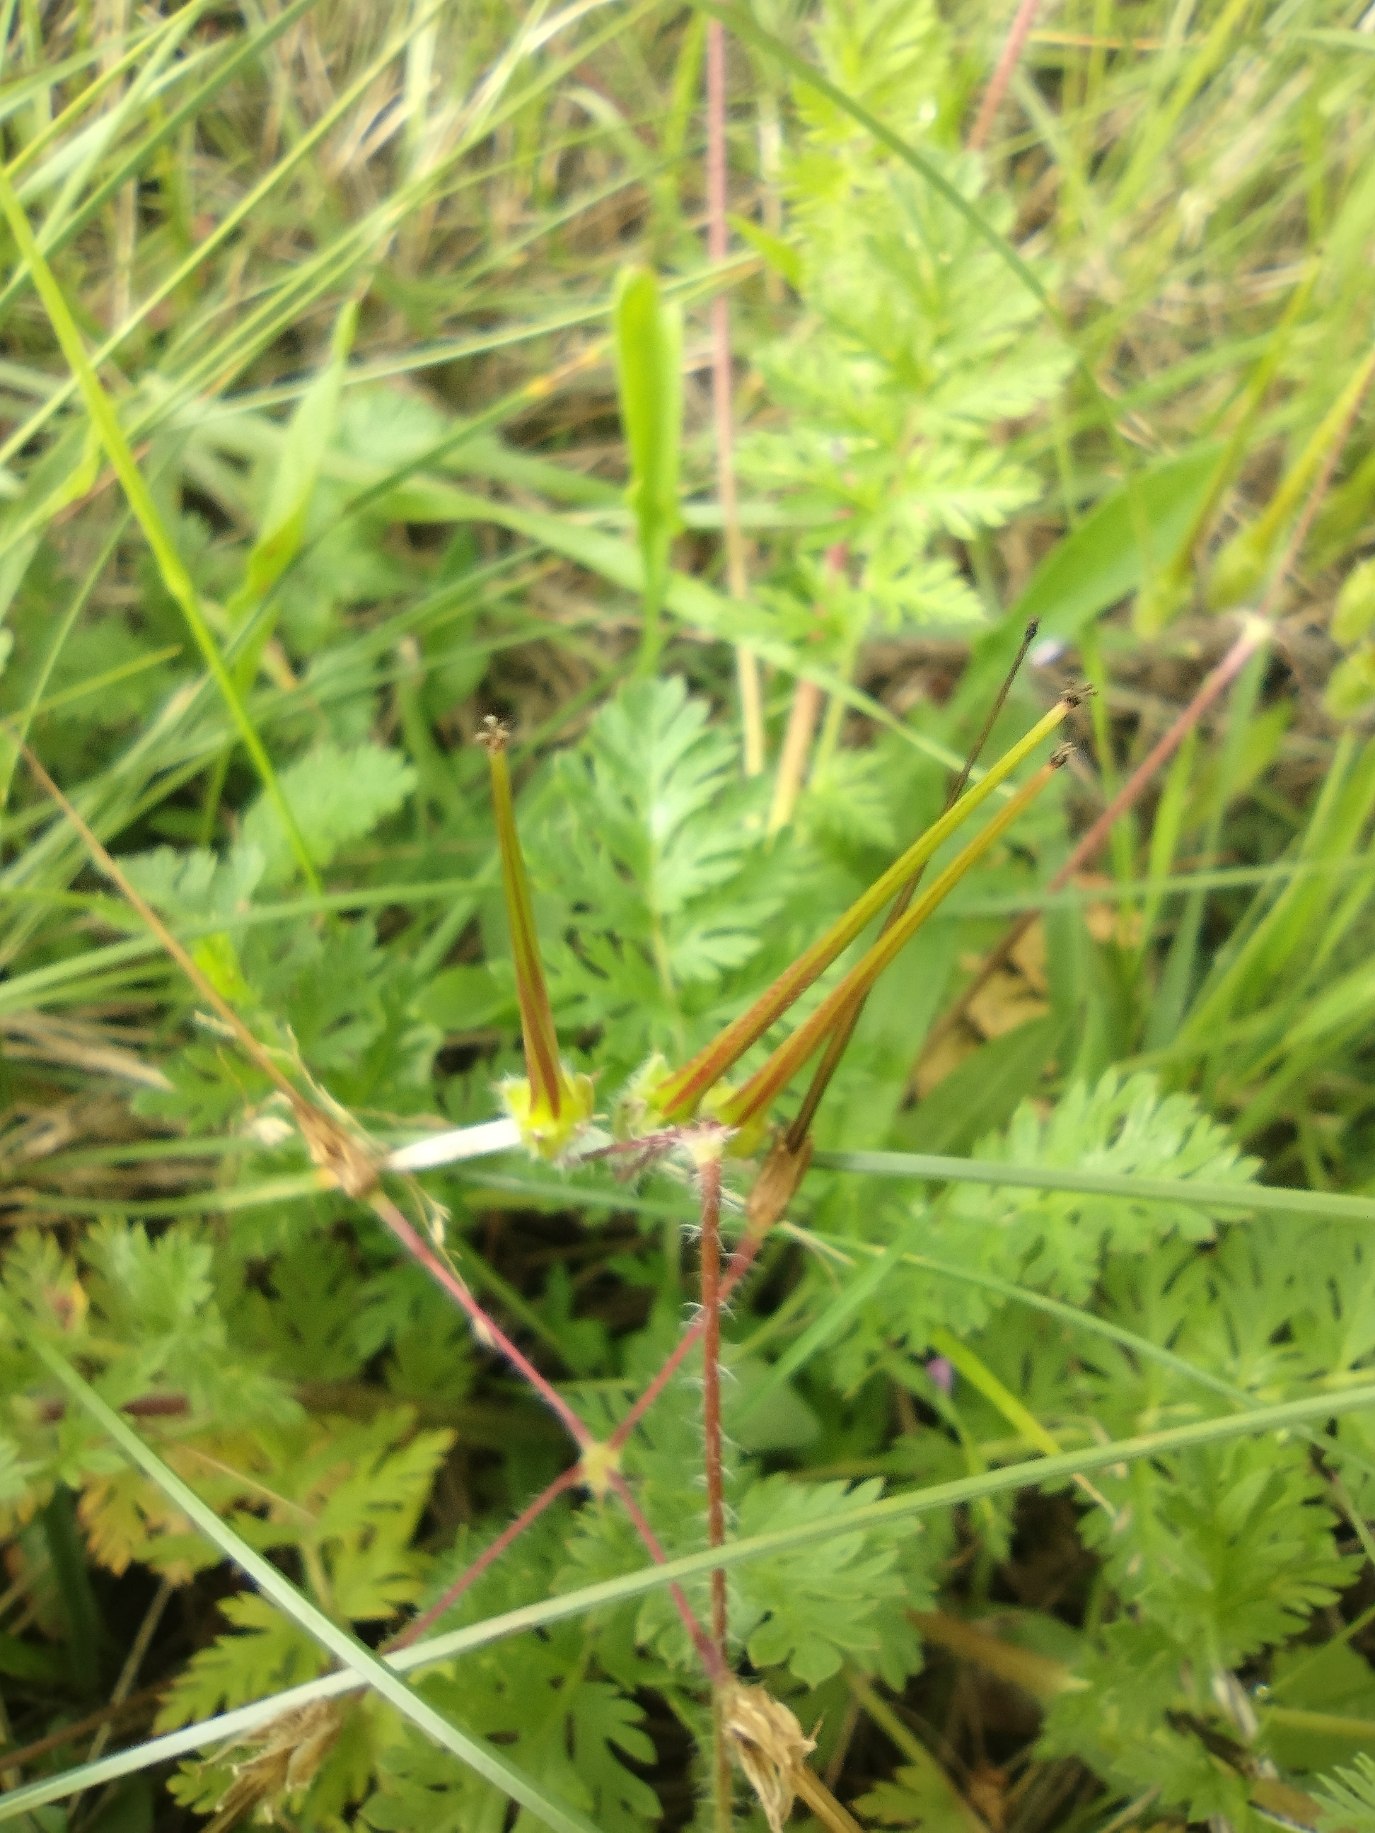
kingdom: Plantae
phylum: Tracheophyta
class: Magnoliopsida
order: Geraniales
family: Geraniaceae
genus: Erodium
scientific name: Erodium cicutarium
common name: Hejrenæb
